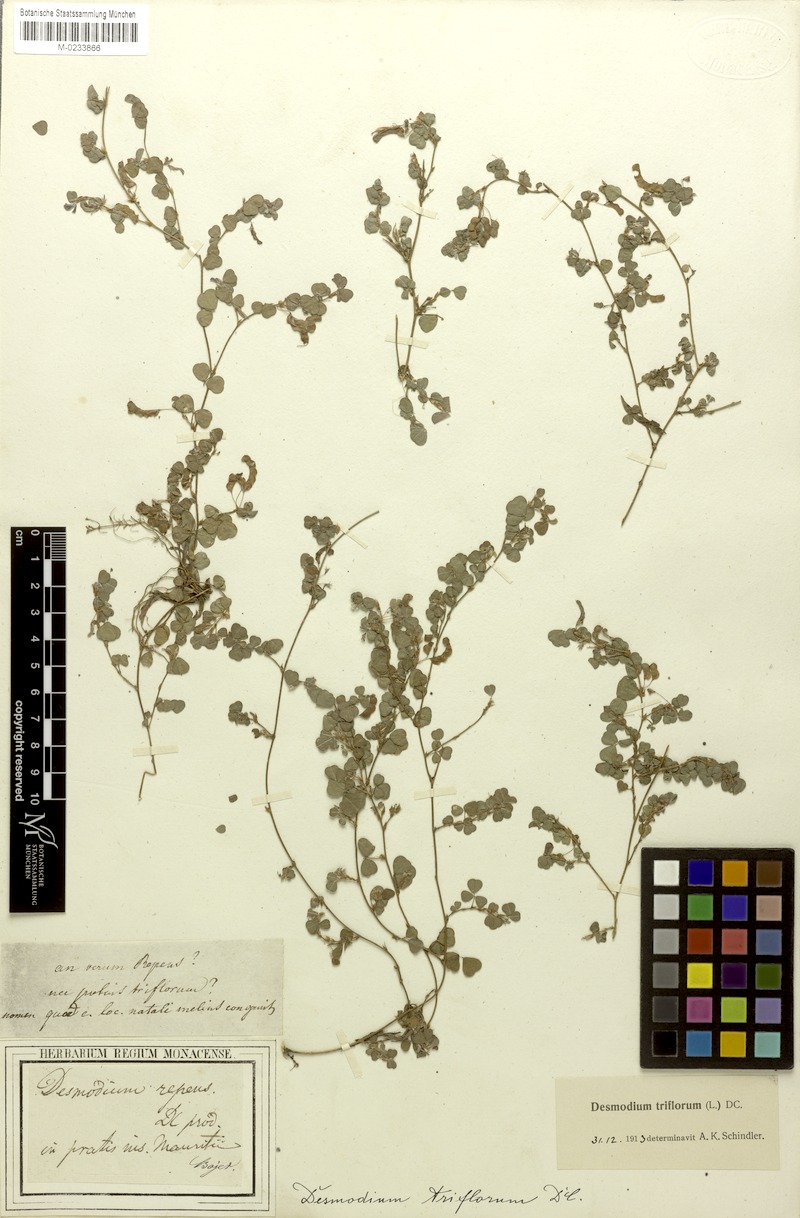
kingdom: Plantae
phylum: Tracheophyta
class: Magnoliopsida
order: Fabales
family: Fabaceae
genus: Grona
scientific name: Grona triflora
